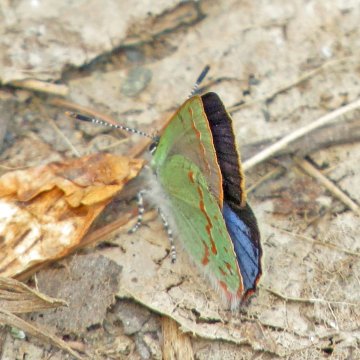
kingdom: Animalia
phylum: Arthropoda
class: Insecta
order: Lepidoptera
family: Lycaenidae
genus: Erora
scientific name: Erora laeta
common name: Early Hairstreak
